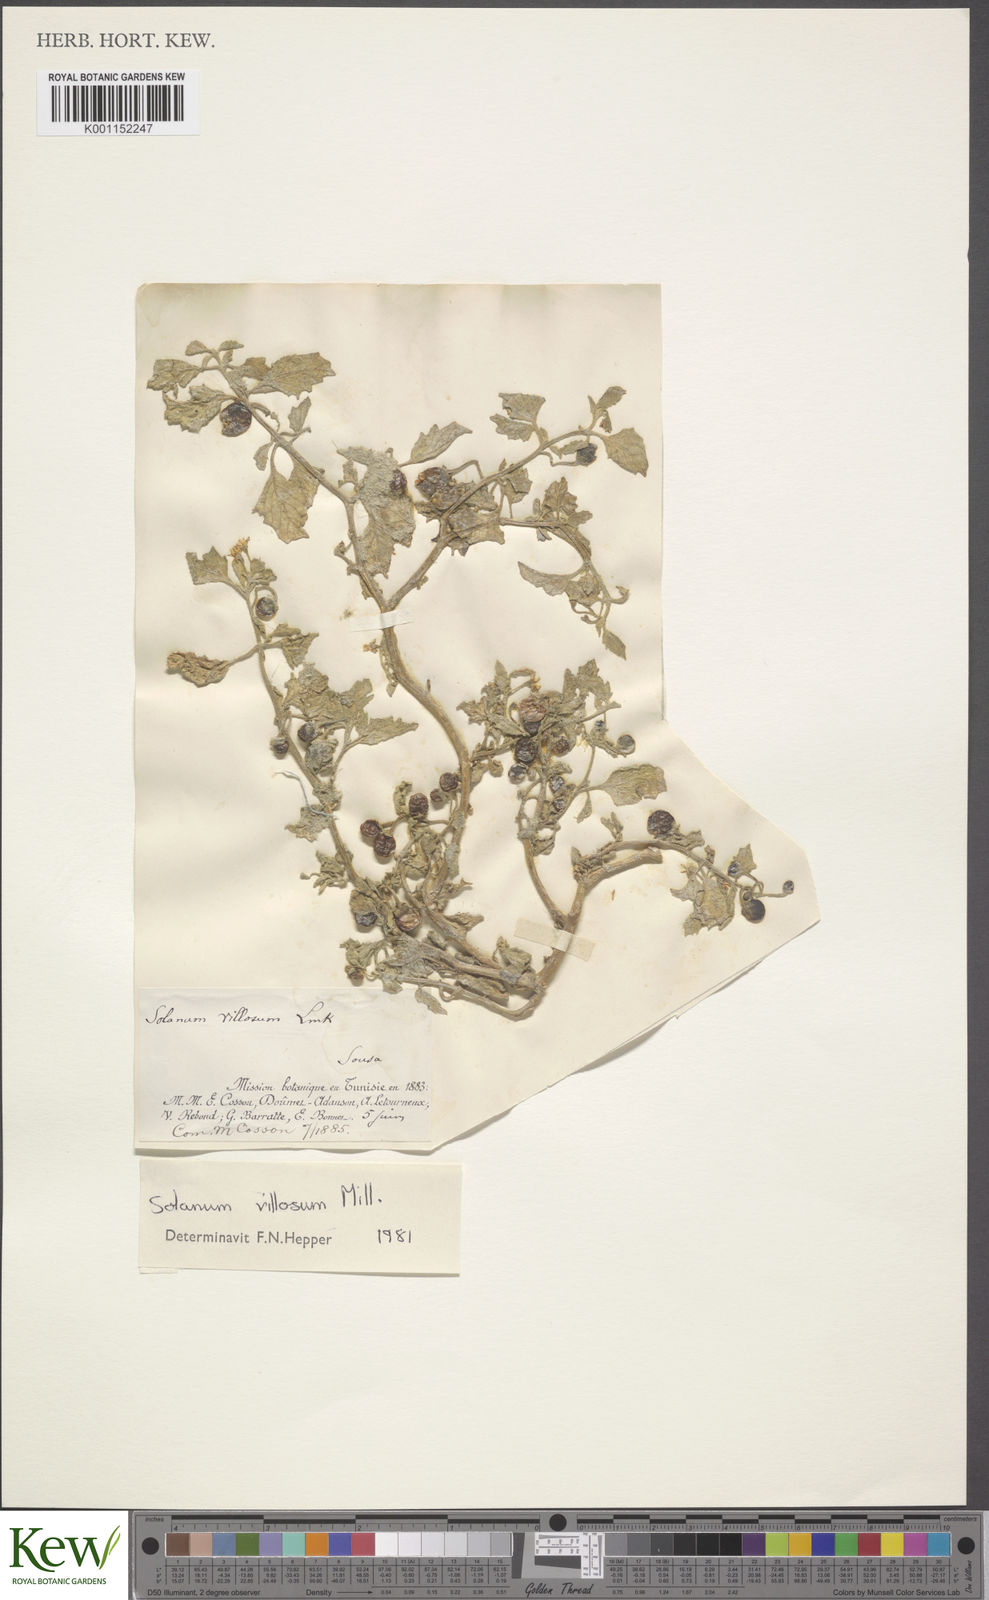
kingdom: Plantae
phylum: Tracheophyta
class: Magnoliopsida
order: Solanales
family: Solanaceae
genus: Solanum
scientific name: Solanum villosum
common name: Red nightshade
